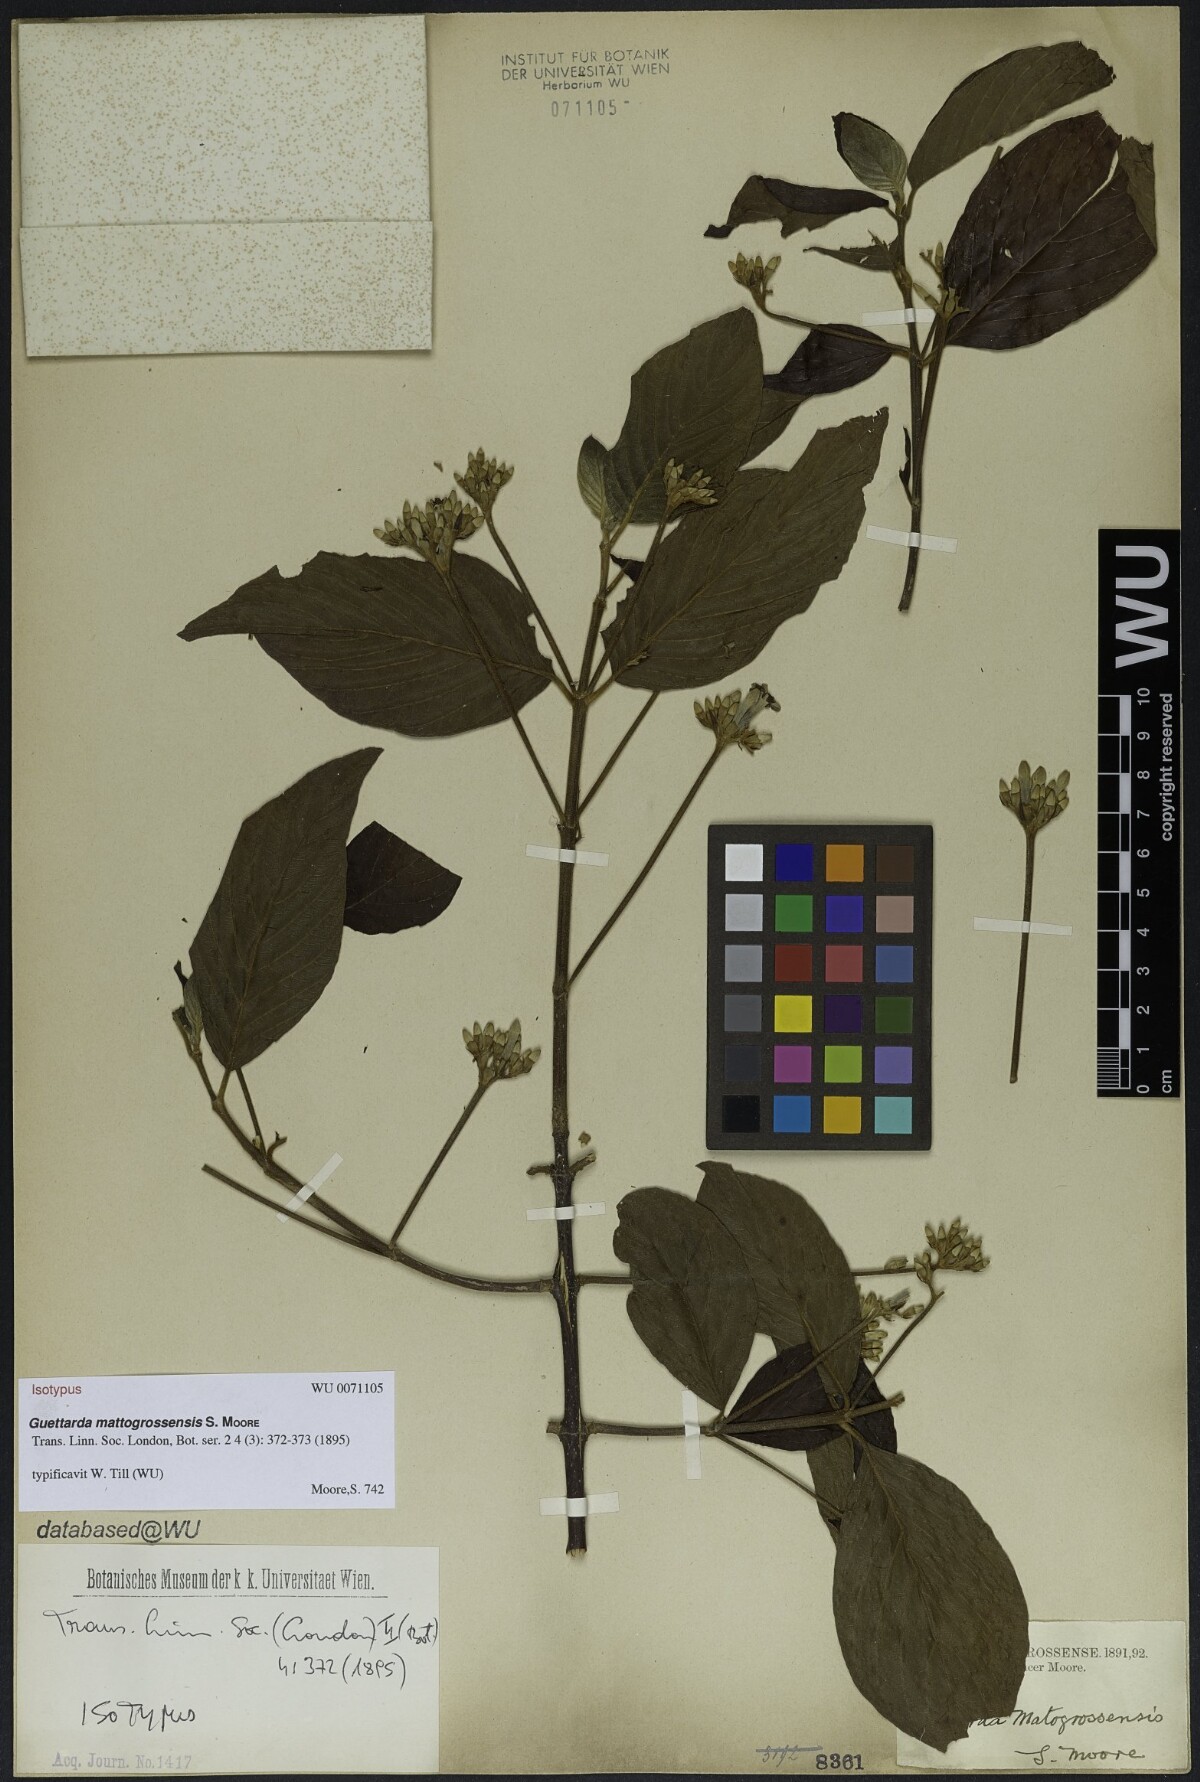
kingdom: Plantae
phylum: Tracheophyta
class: Magnoliopsida
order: Gentianales
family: Rubiaceae
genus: Guettarda
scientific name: Guettarda mattogrossensis
